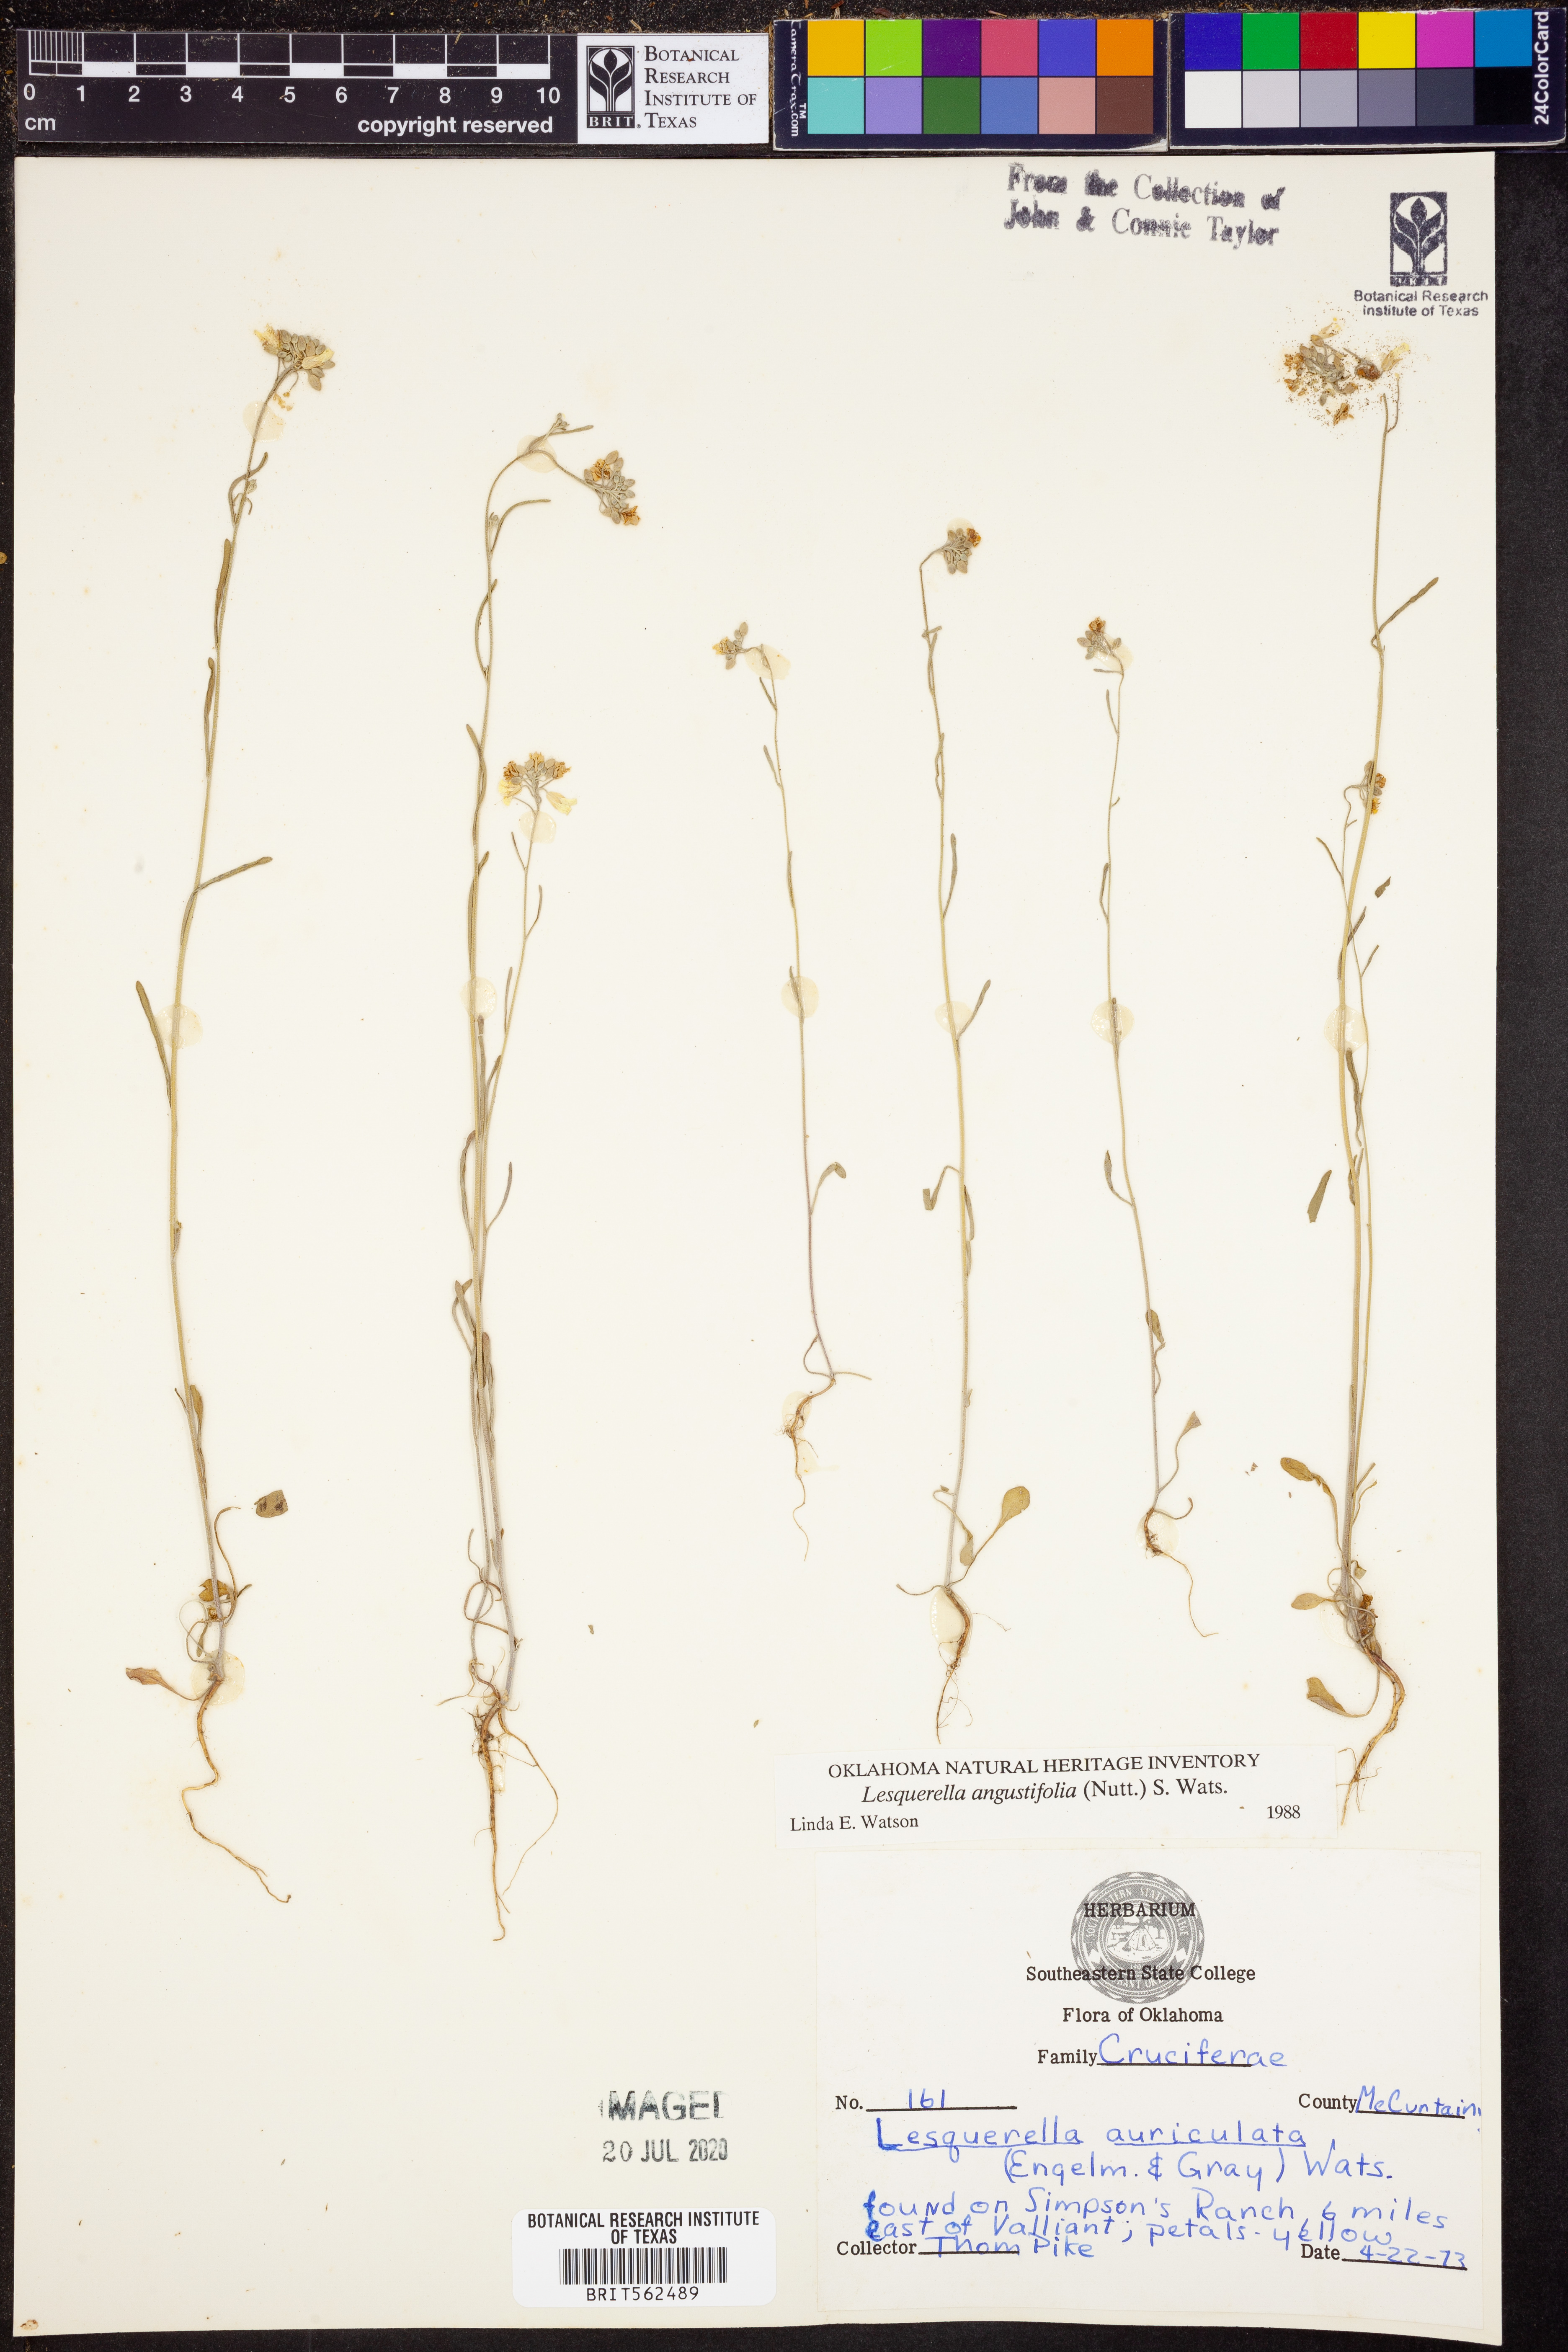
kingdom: Plantae
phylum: Tracheophyta
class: Magnoliopsida
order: Brassicales
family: Brassicaceae
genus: Physaria
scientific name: Physaria angustifolia
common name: Threadleaf bladderpod
